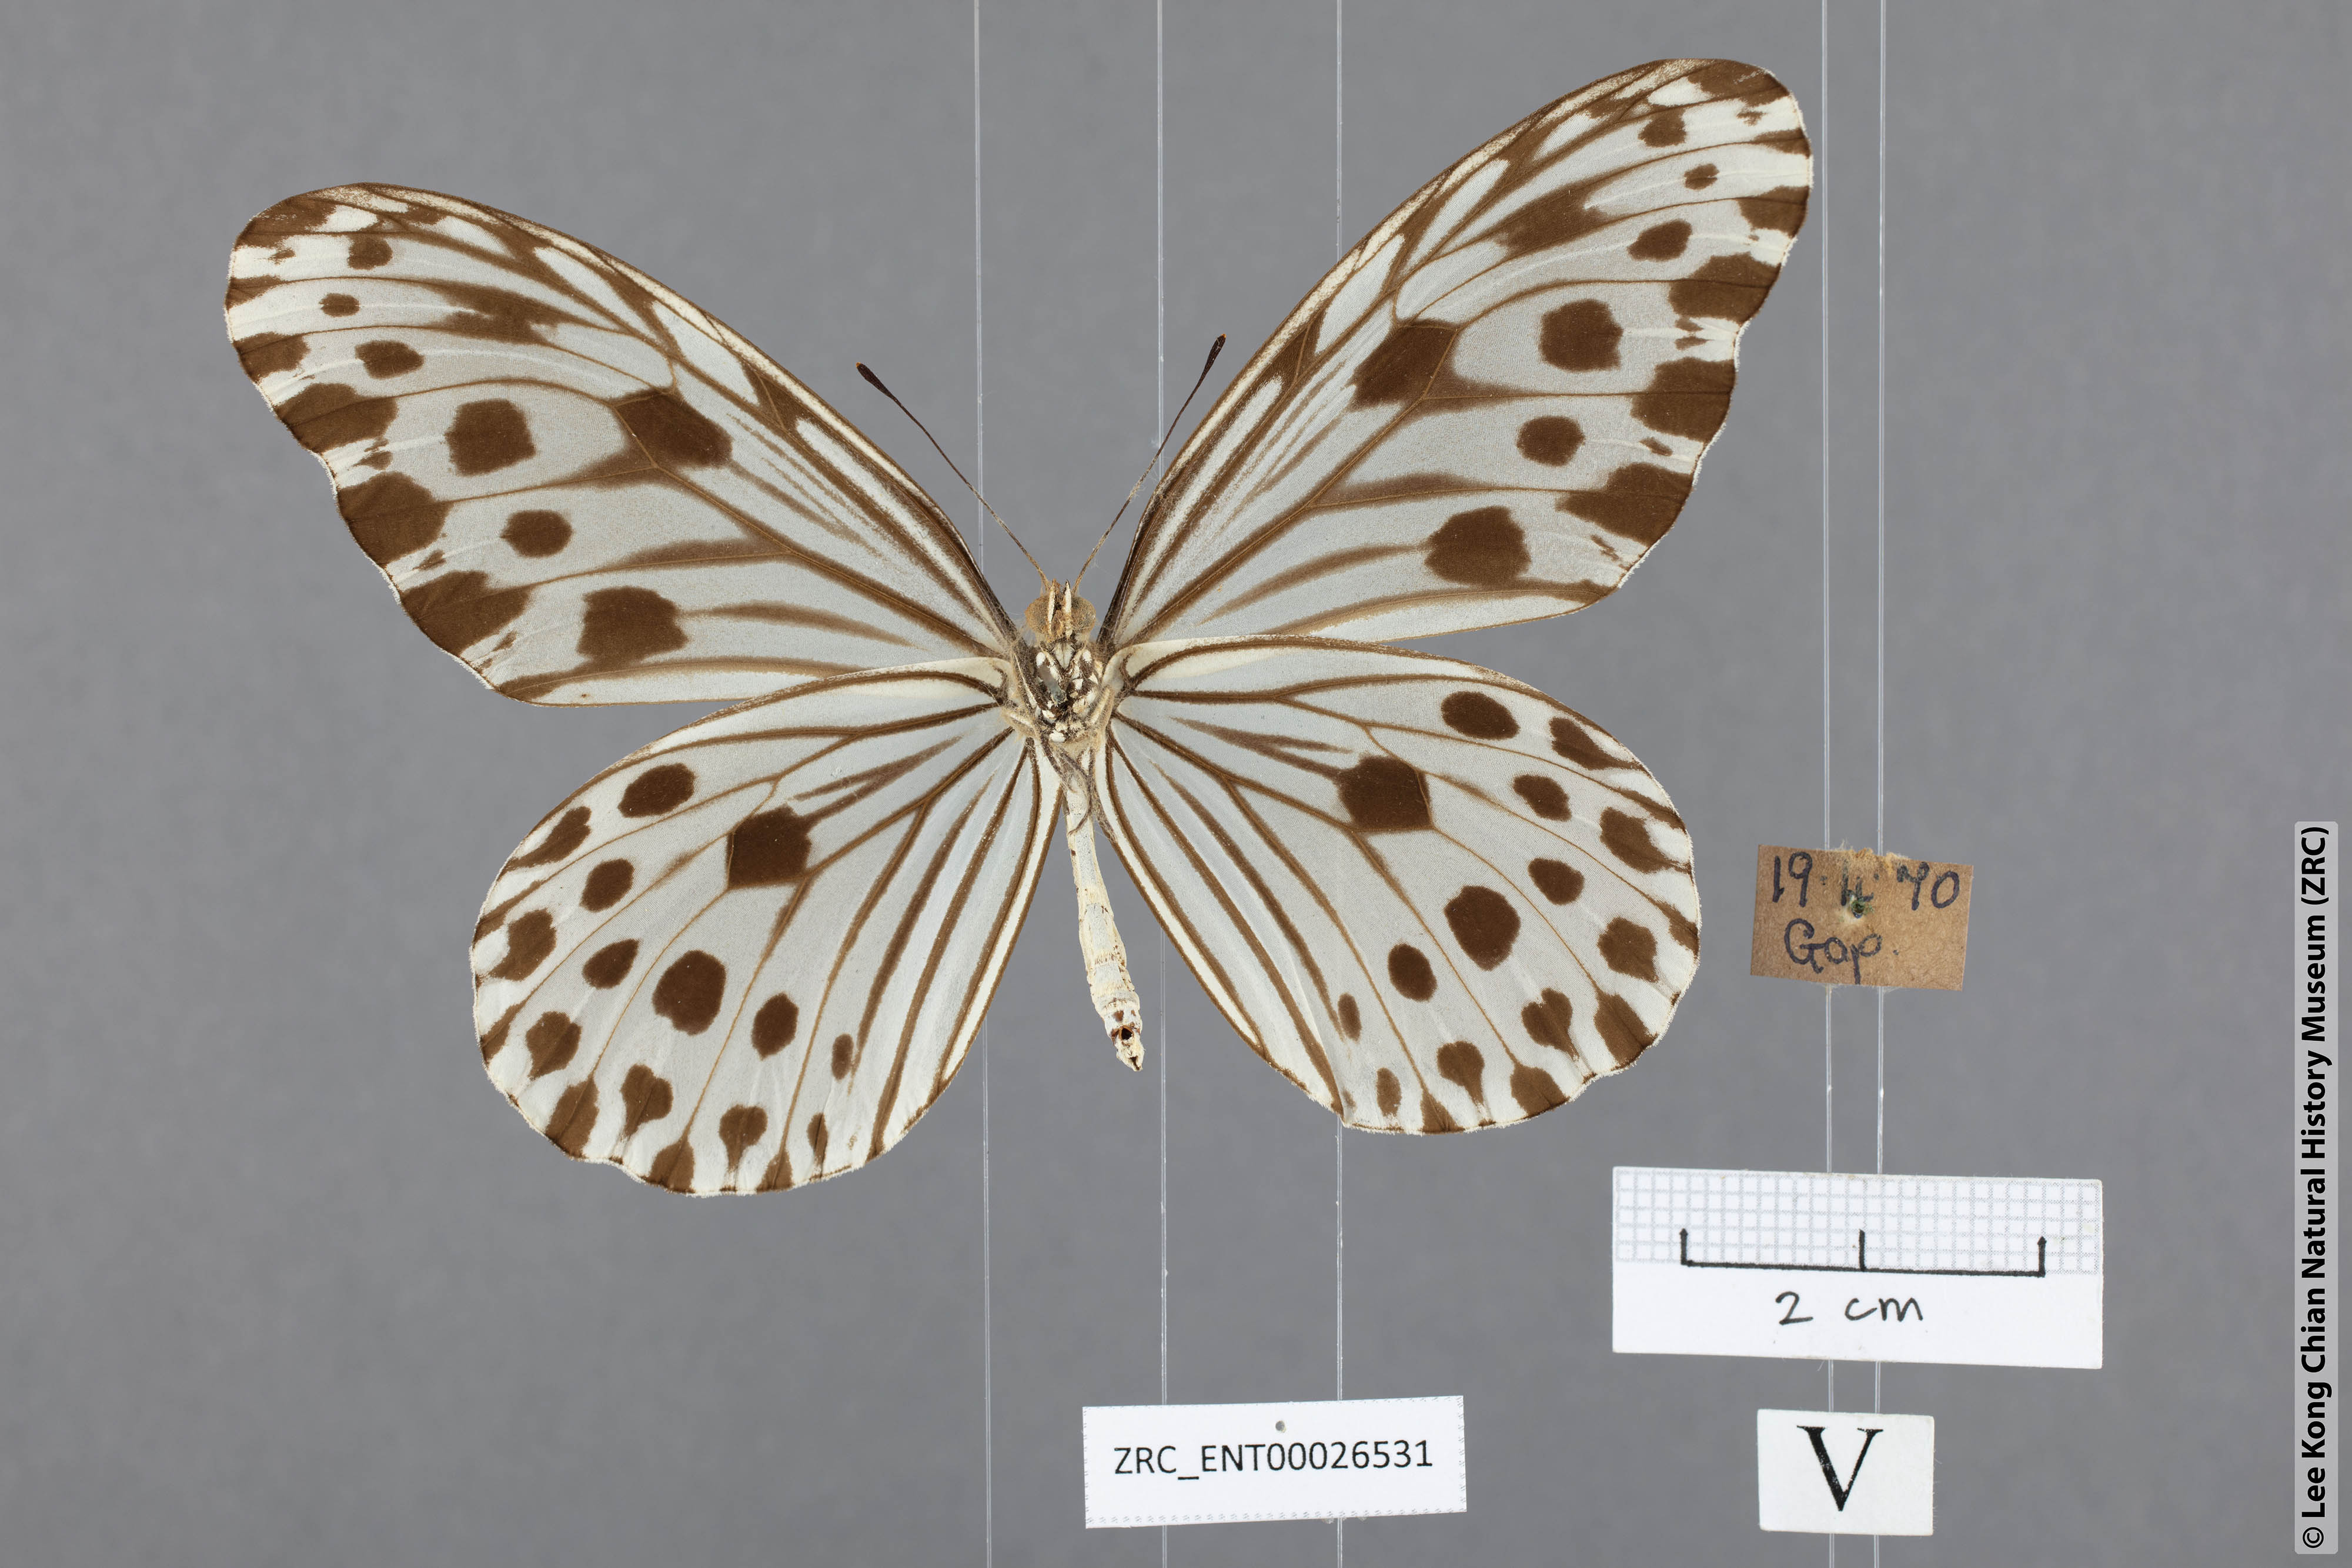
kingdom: Animalia
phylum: Arthropoda
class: Insecta
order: Lepidoptera
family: Nymphalidae
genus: Ideopsis
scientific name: Ideopsis gaura
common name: Smaller wood nymph
